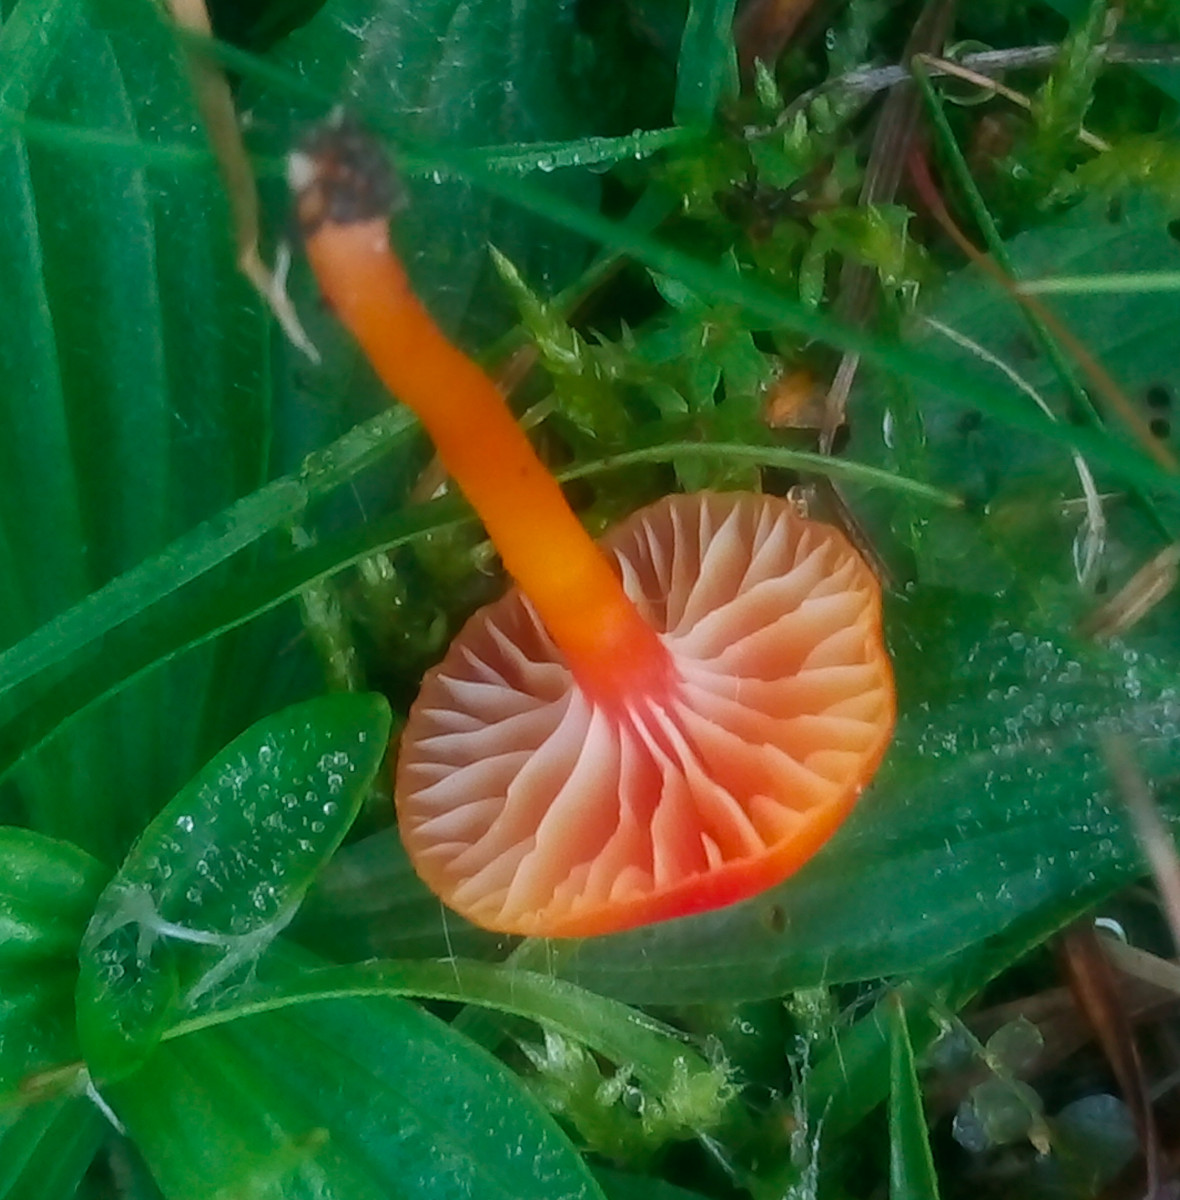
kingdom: Fungi
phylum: Basidiomycota
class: Agaricomycetes
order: Agaricales
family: Hygrophoraceae
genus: Hygrocybe
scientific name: Hygrocybe insipida
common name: liden vokshat
